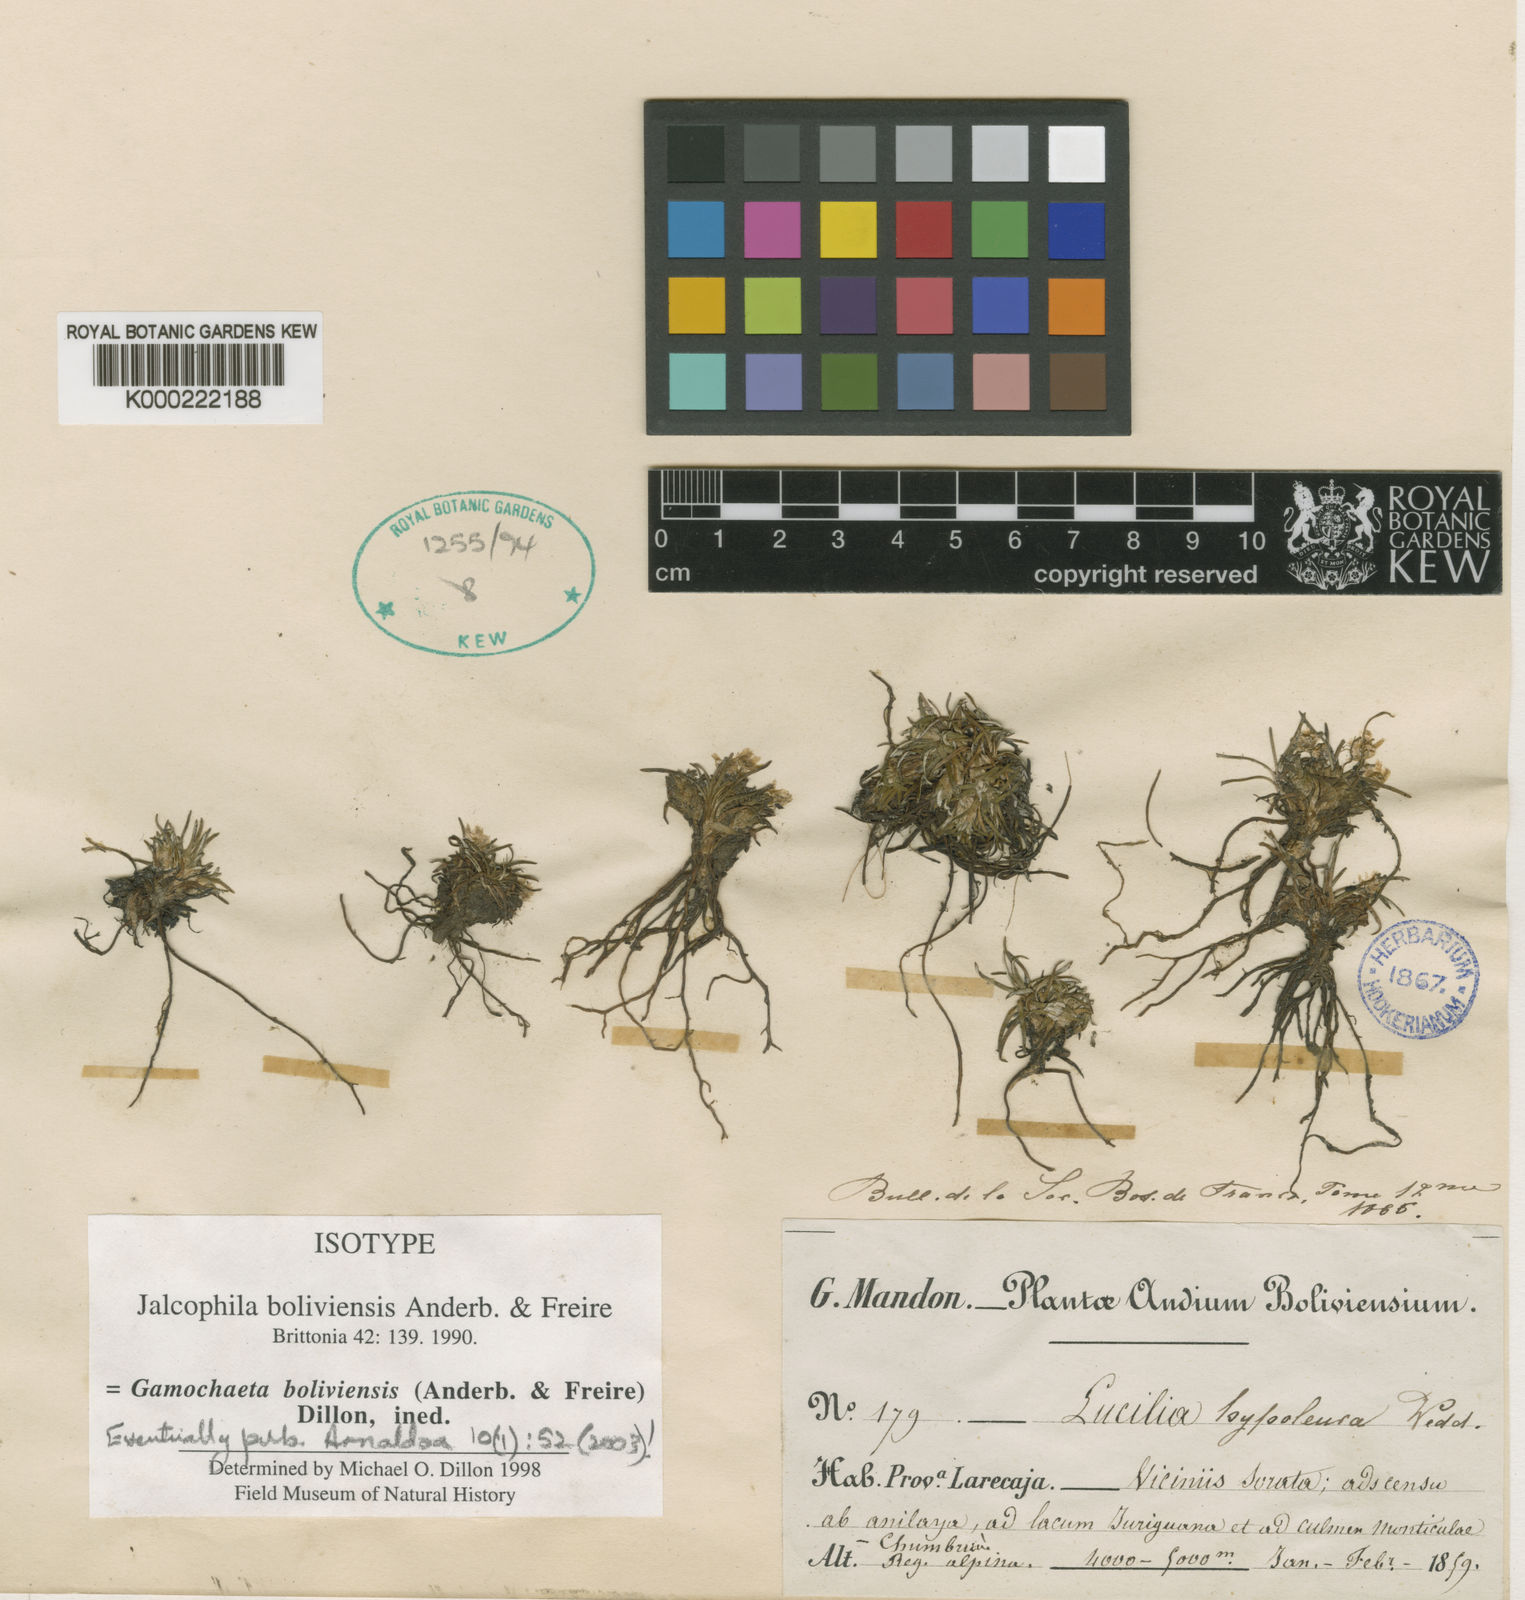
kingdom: Plantae
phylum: Tracheophyta
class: Magnoliopsida
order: Asterales
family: Asteraceae
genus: Gamochaeta
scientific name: Gamochaeta boliviensis
